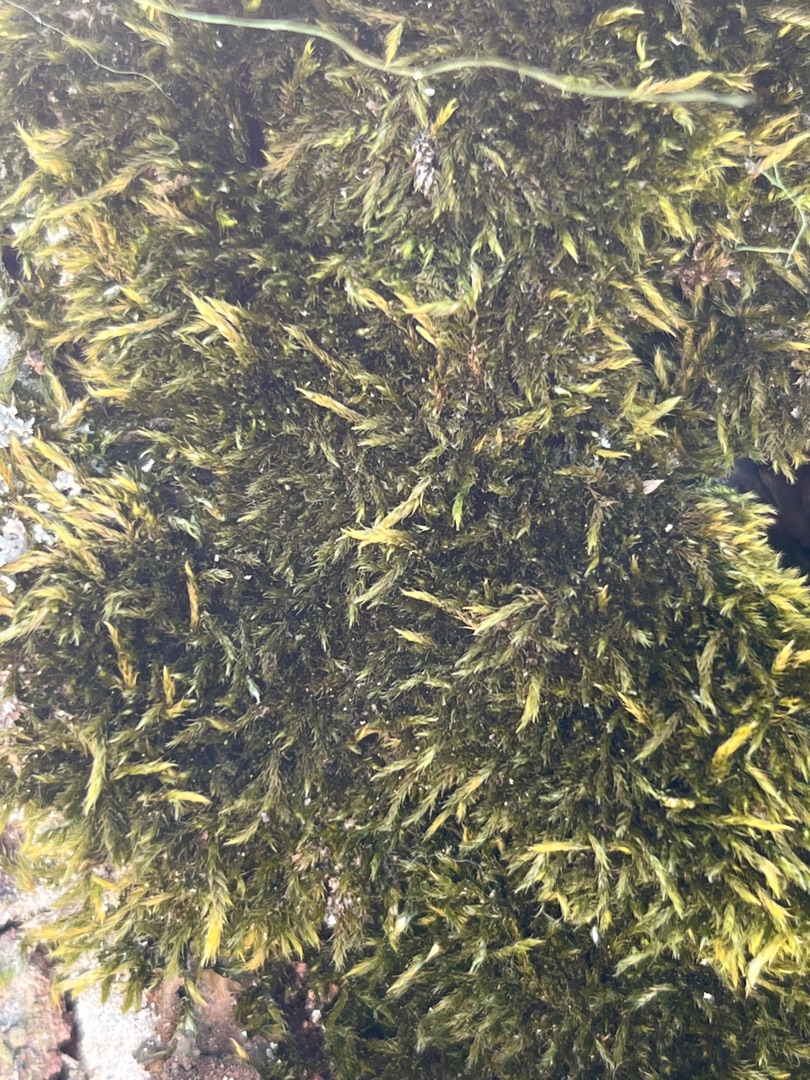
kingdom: Plantae
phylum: Bryophyta
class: Bryopsida
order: Hypnales
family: Hypnaceae
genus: Hypnum
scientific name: Hypnum
